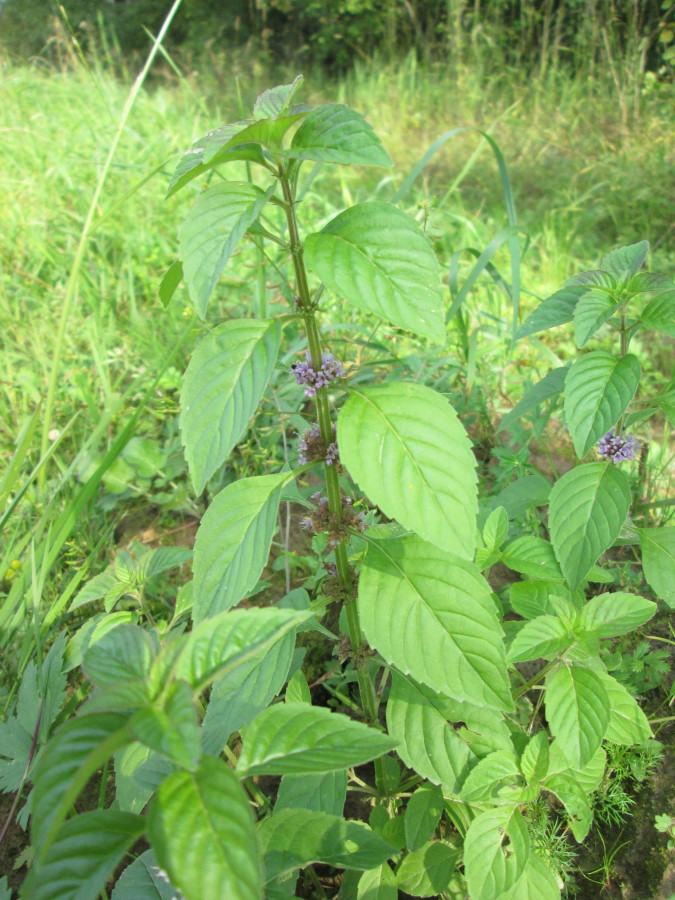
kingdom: Plantae
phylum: Tracheophyta
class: Magnoliopsida
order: Lamiales
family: Lamiaceae
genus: Mentha
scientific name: Mentha arvensis
